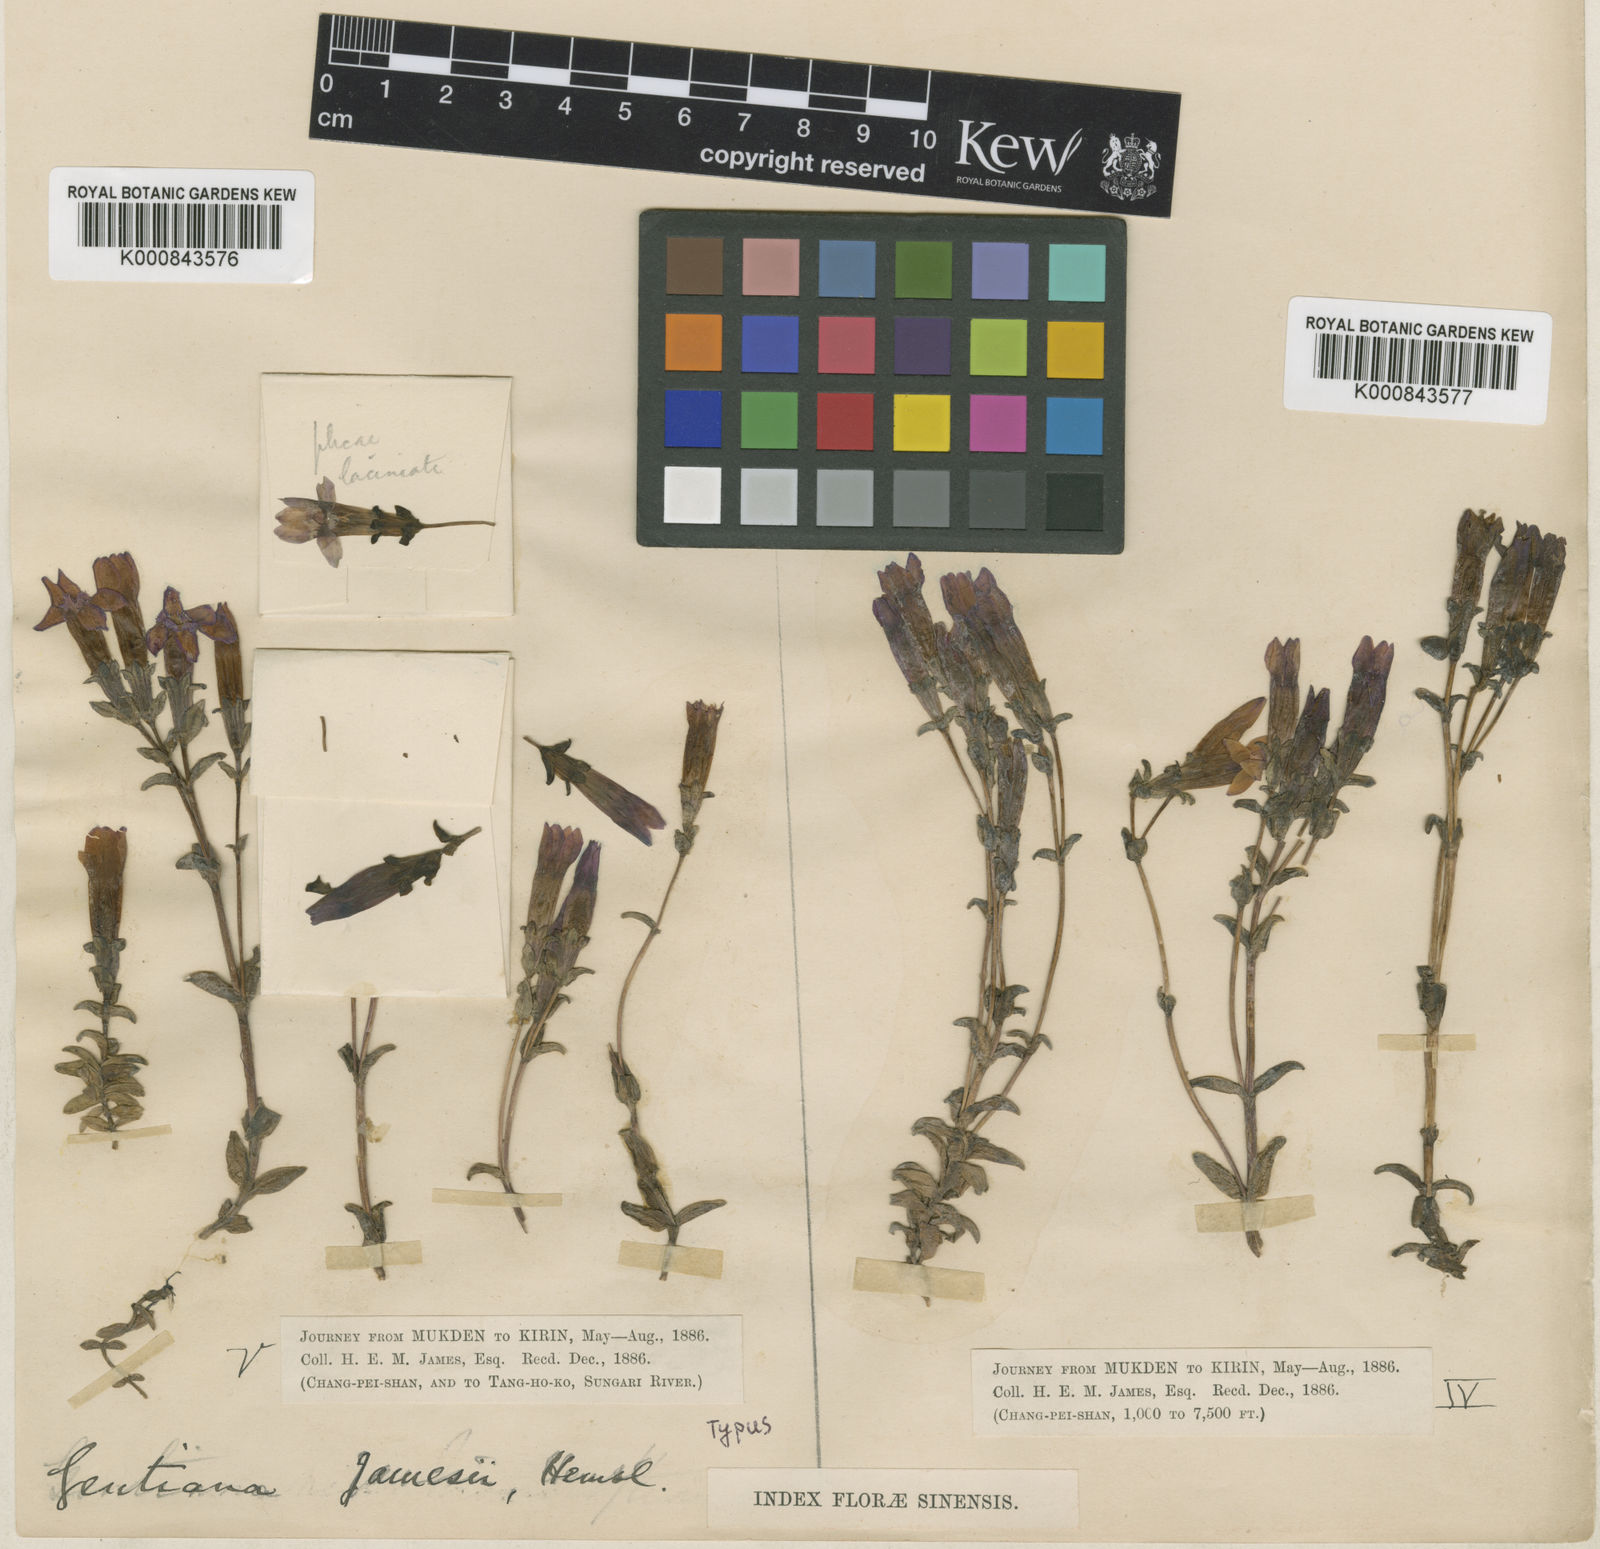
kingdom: Plantae
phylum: Tracheophyta
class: Magnoliopsida
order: Gentianales
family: Gentianaceae
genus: Gentiana
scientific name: Gentiana jamesii
